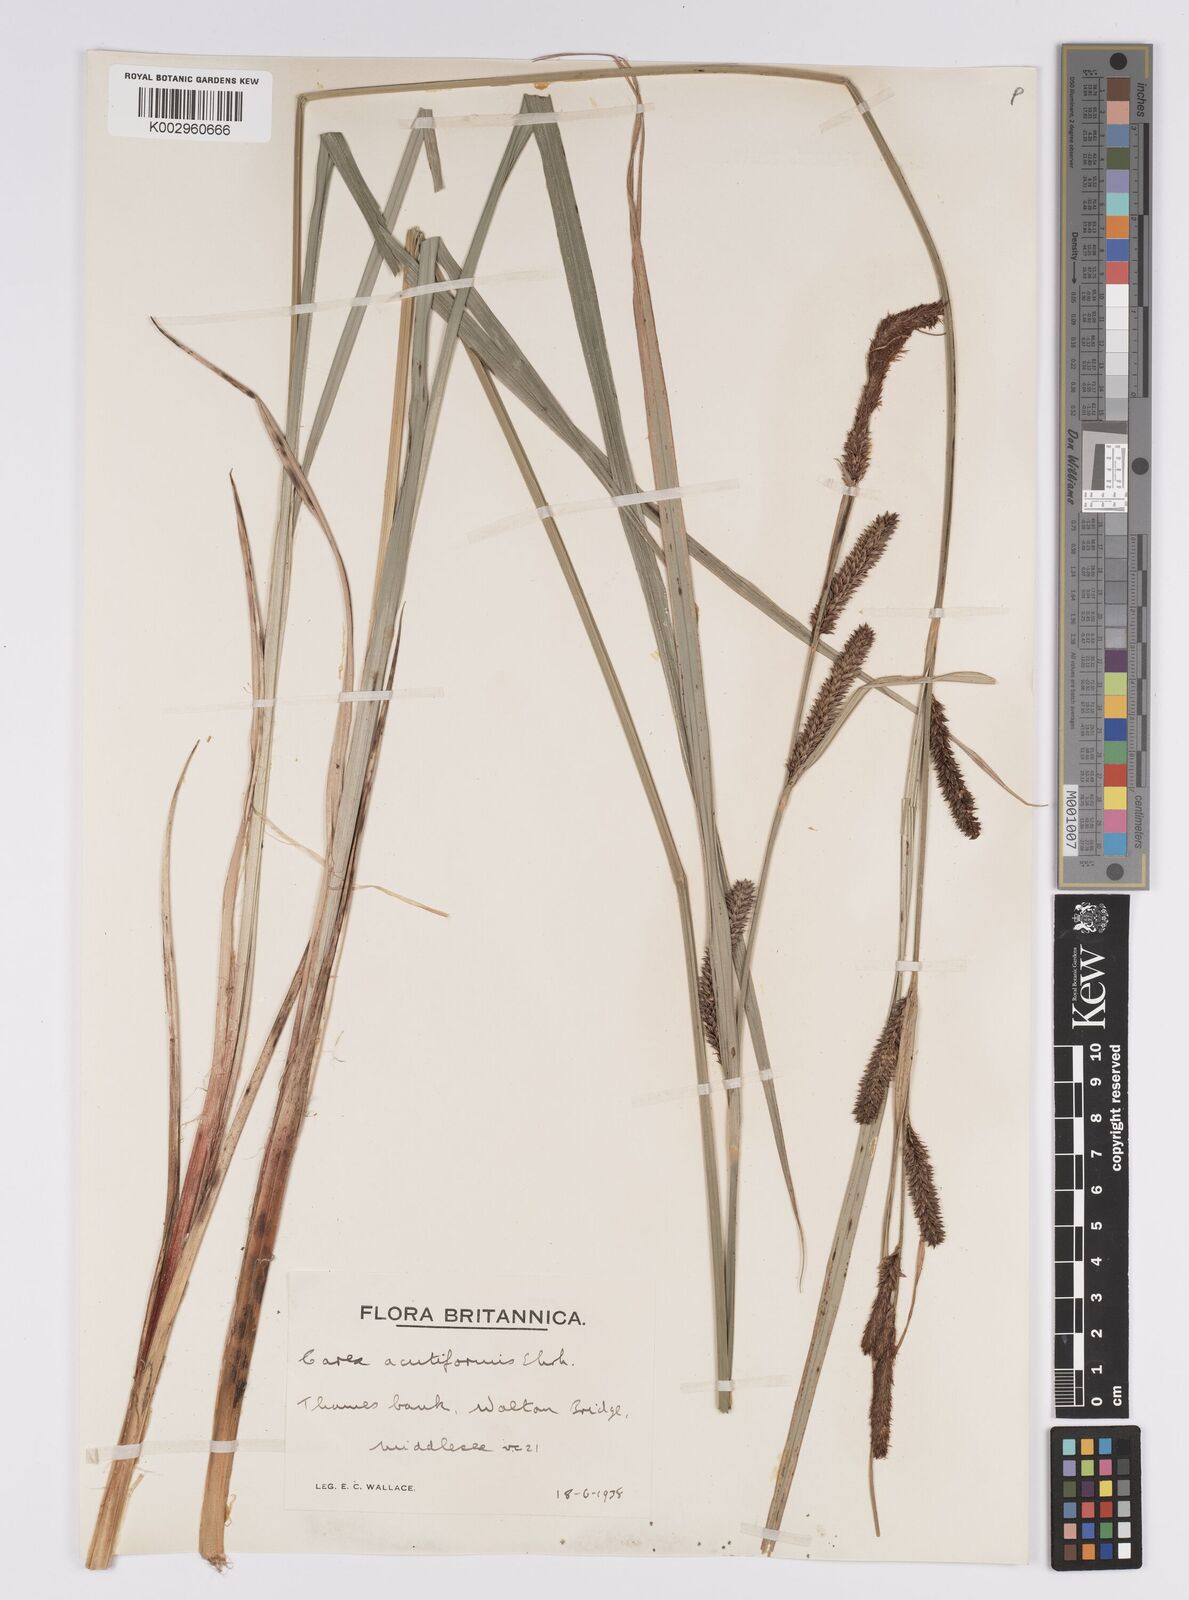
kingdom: Plantae
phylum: Tracheophyta
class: Liliopsida
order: Poales
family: Cyperaceae
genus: Carex
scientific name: Carex acutiformis
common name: Lesser pond-sedge
